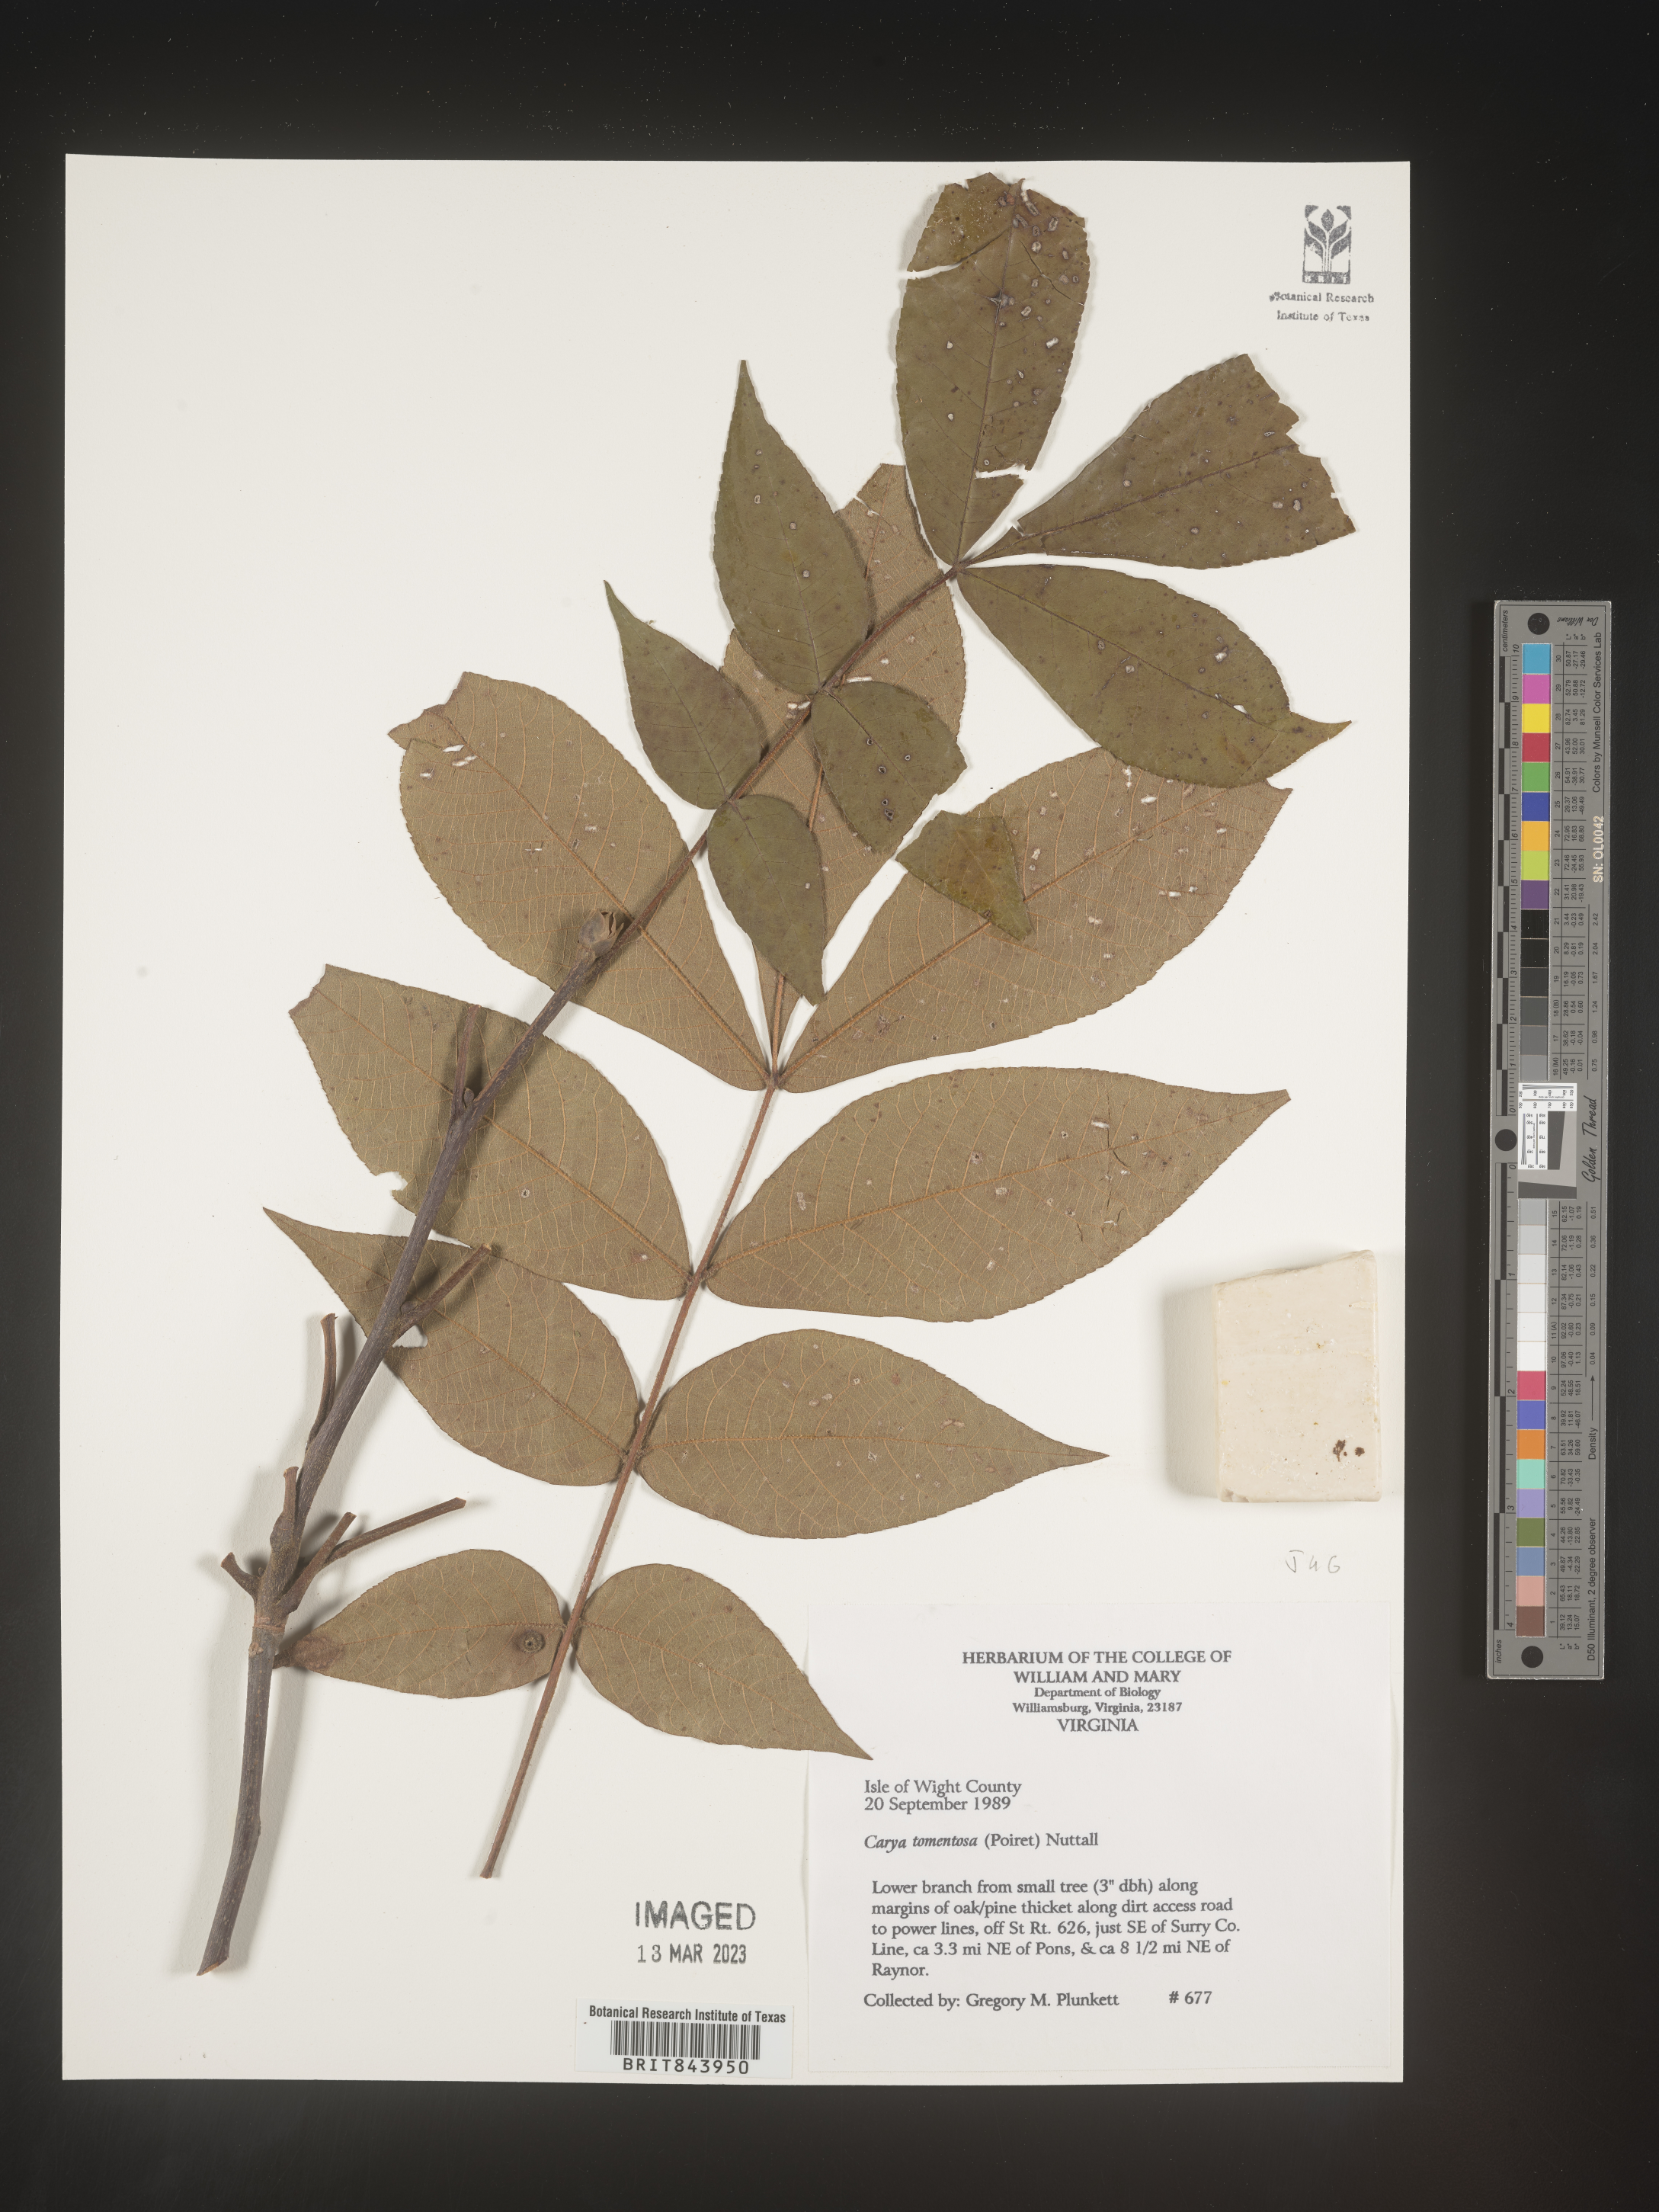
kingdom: Plantae
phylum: Tracheophyta
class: Magnoliopsida
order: Fagales
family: Juglandaceae
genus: Carya
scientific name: Carya alba
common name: Mockernut hickory
